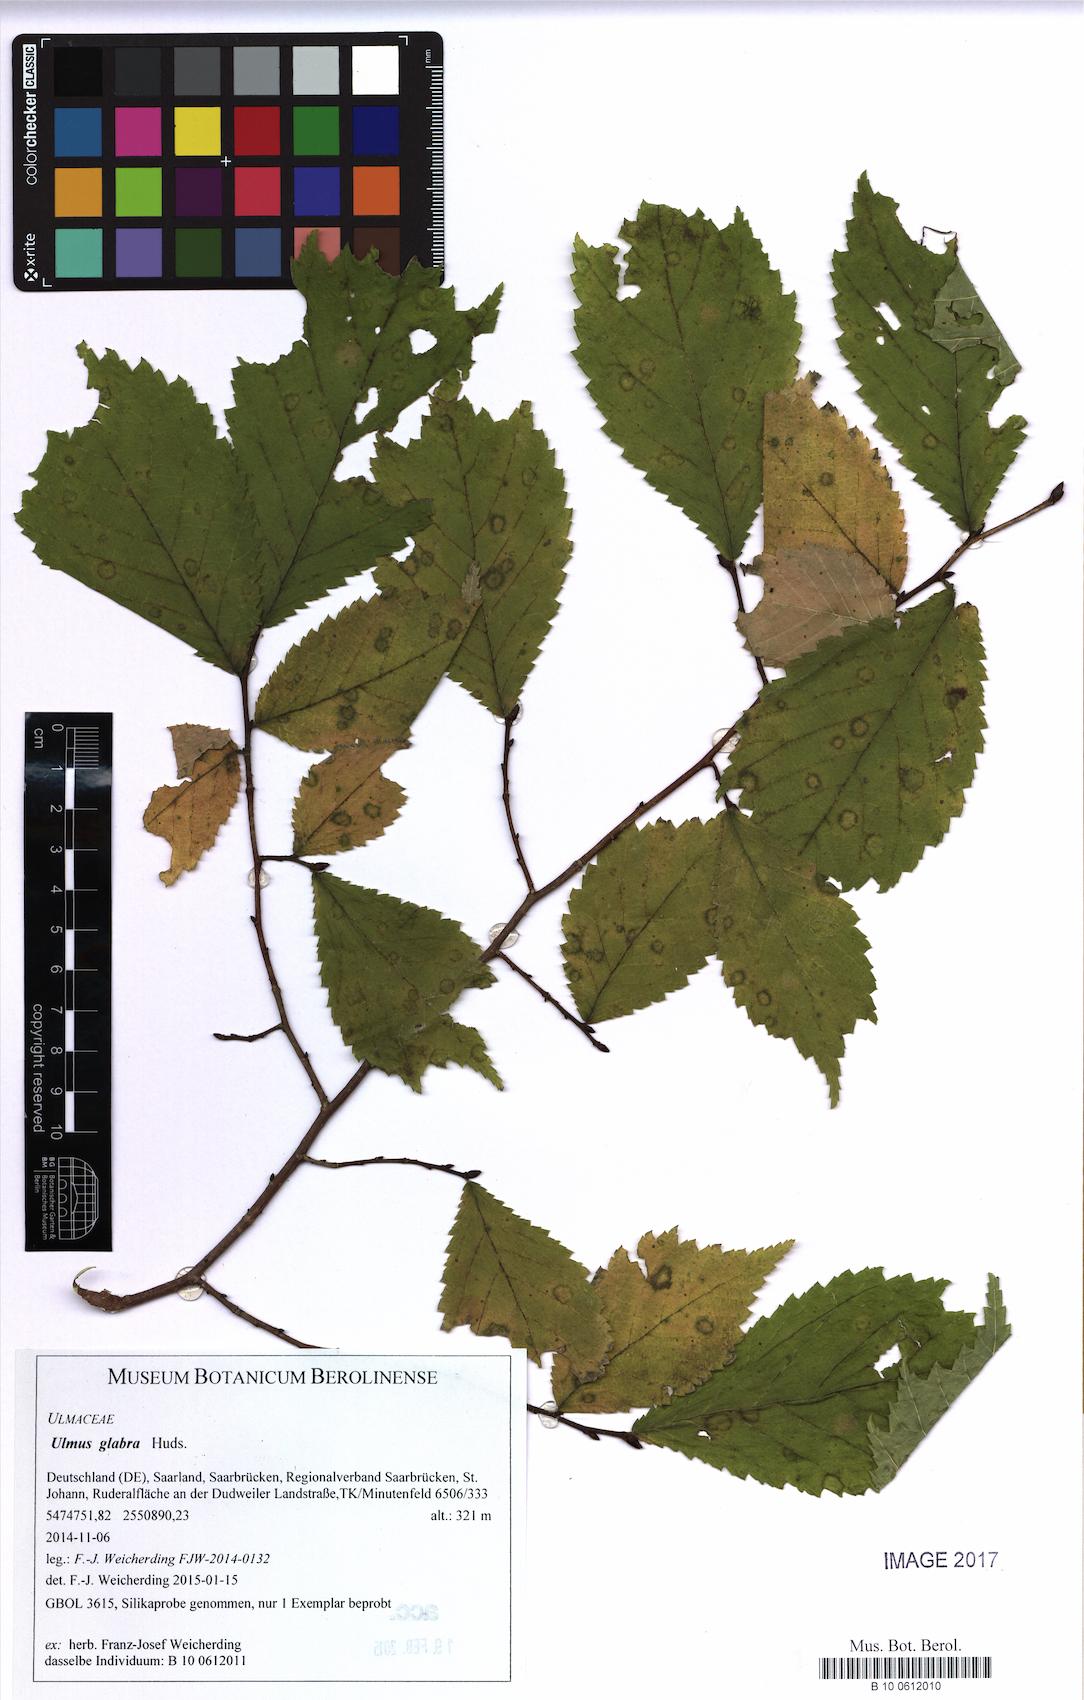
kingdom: Plantae
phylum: Tracheophyta
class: Magnoliopsida
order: Rosales
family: Ulmaceae
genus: Ulmus
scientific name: Ulmus glabra
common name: Wych elm
